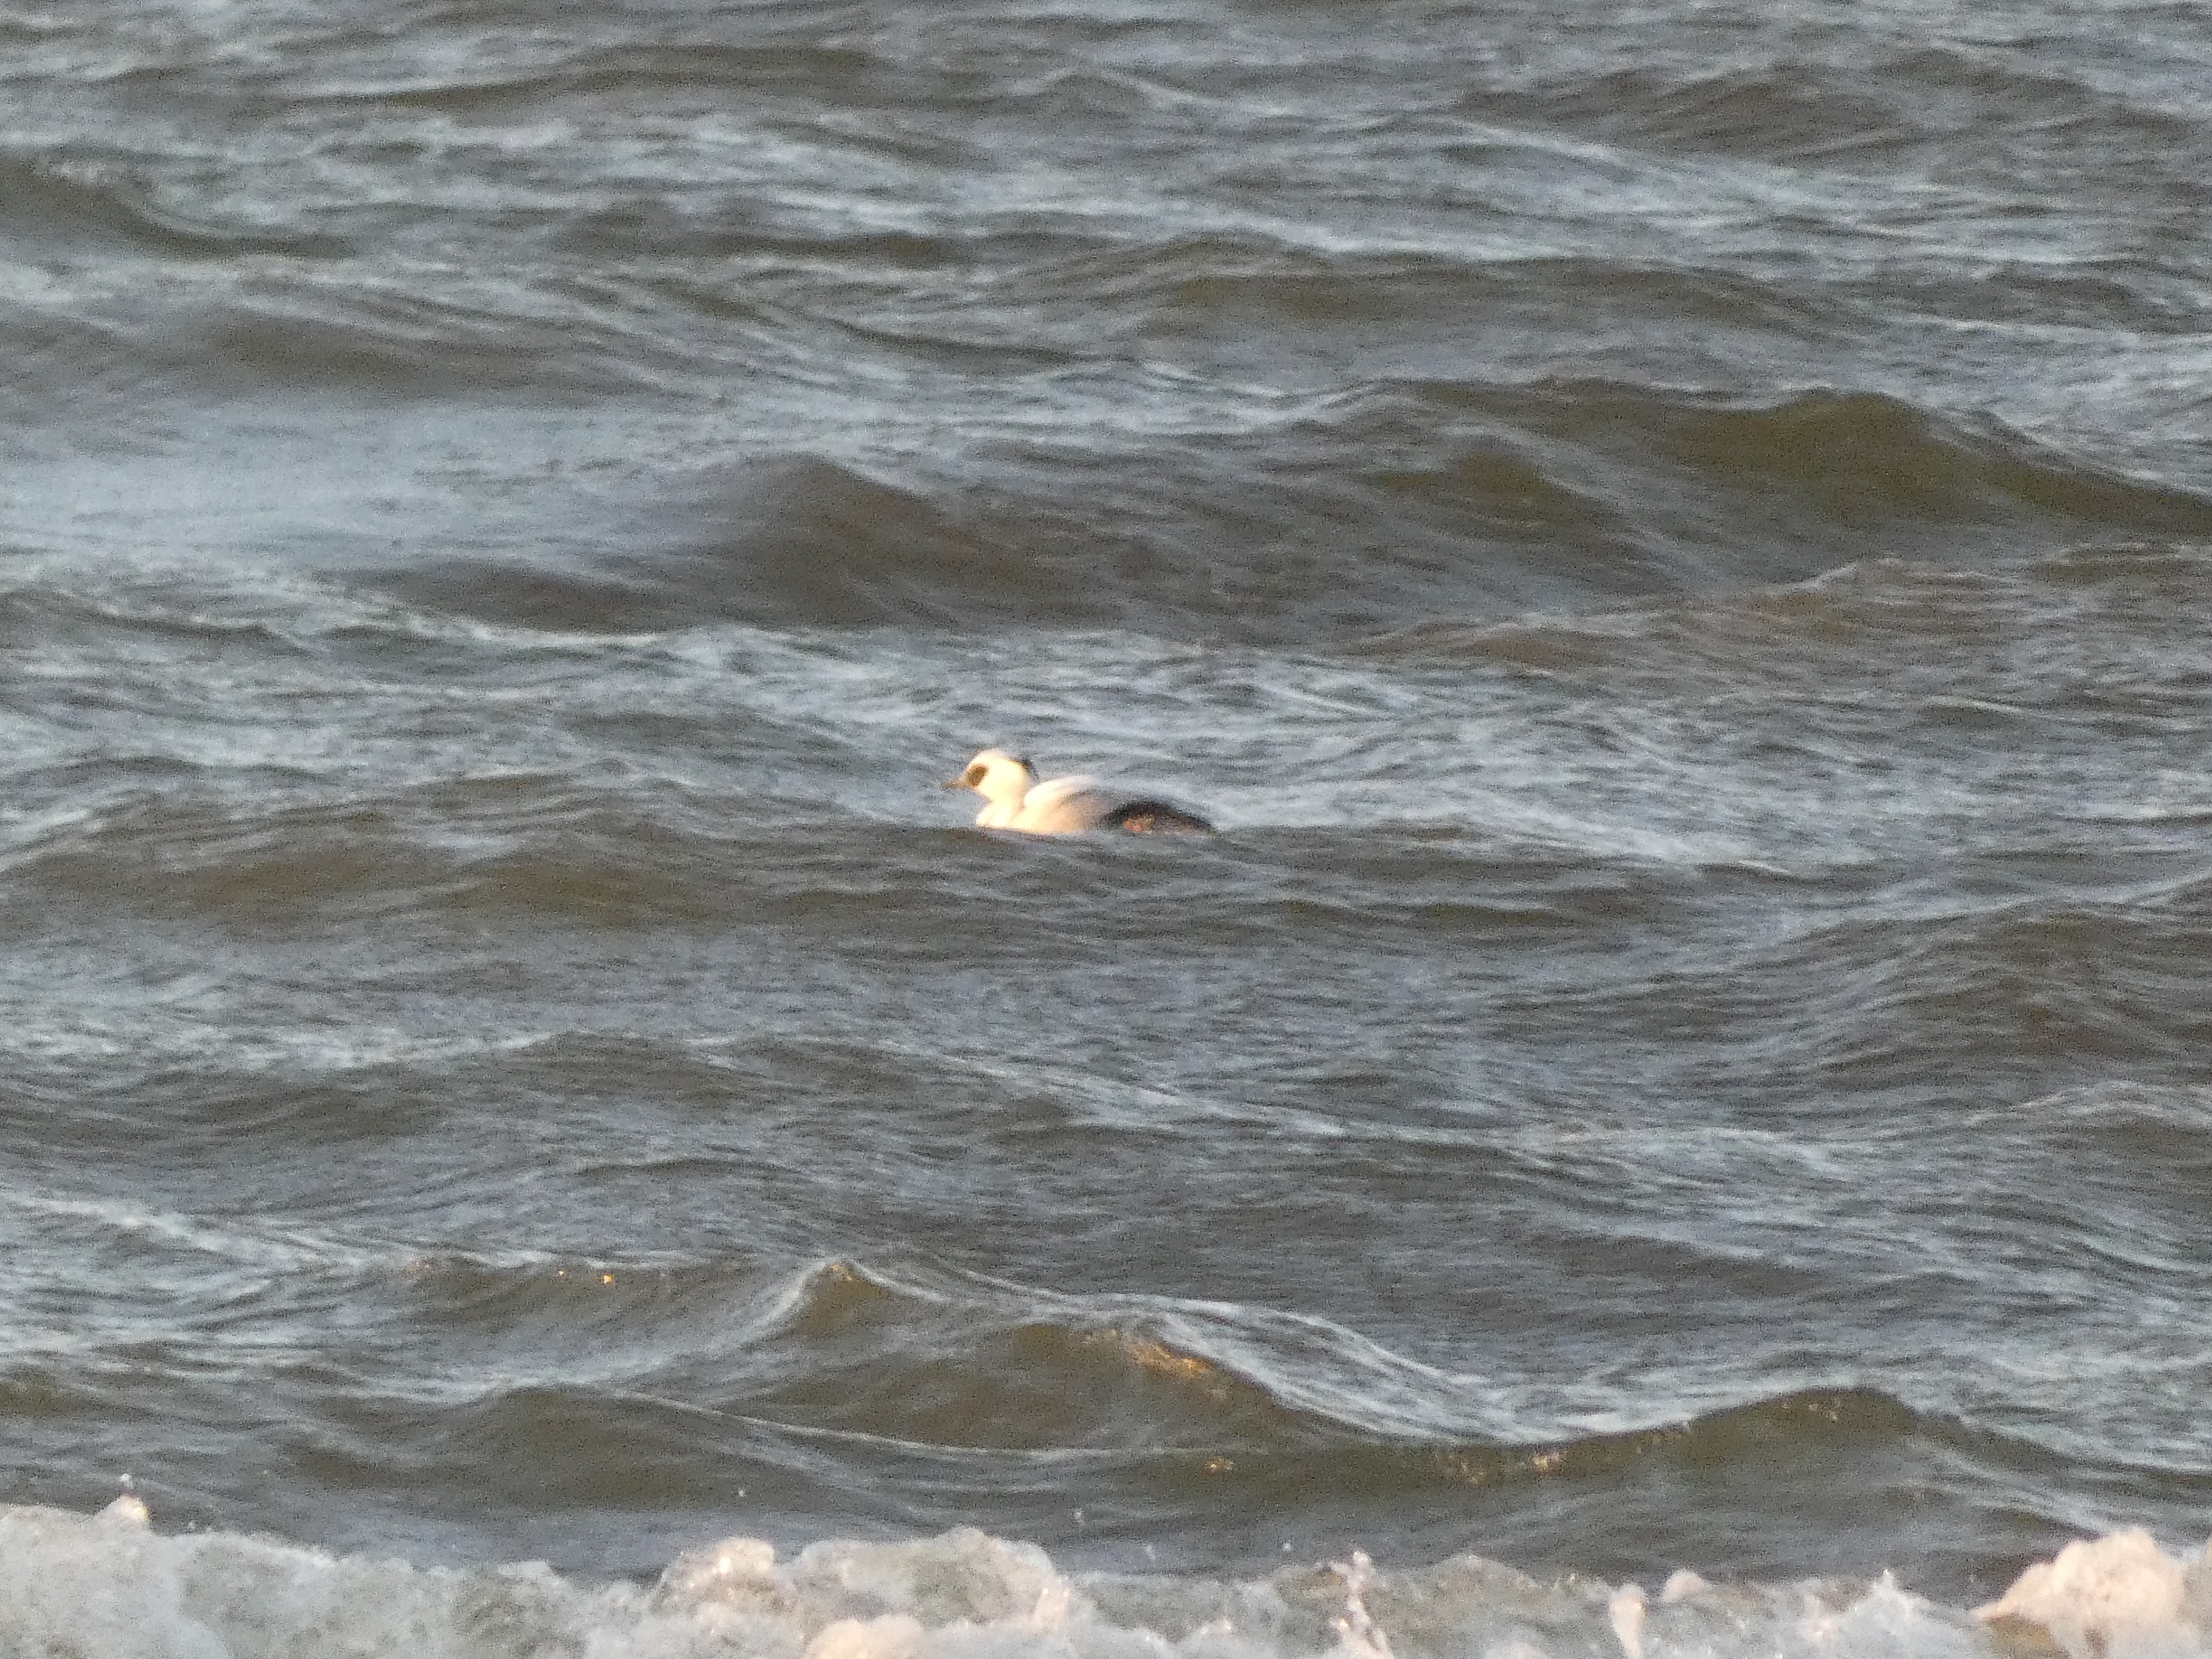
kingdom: Animalia
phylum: Chordata
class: Aves
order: Anseriformes
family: Anatidae
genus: Mergellus
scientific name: Mergellus albellus
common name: Lille skallesluger
